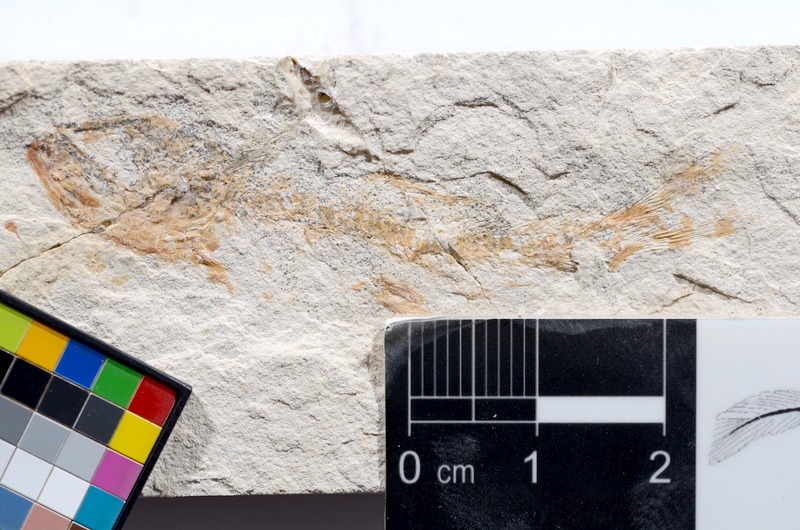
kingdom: Animalia
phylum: Chordata
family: Ascalaboidae
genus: Tharsis
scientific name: Tharsis dubius
